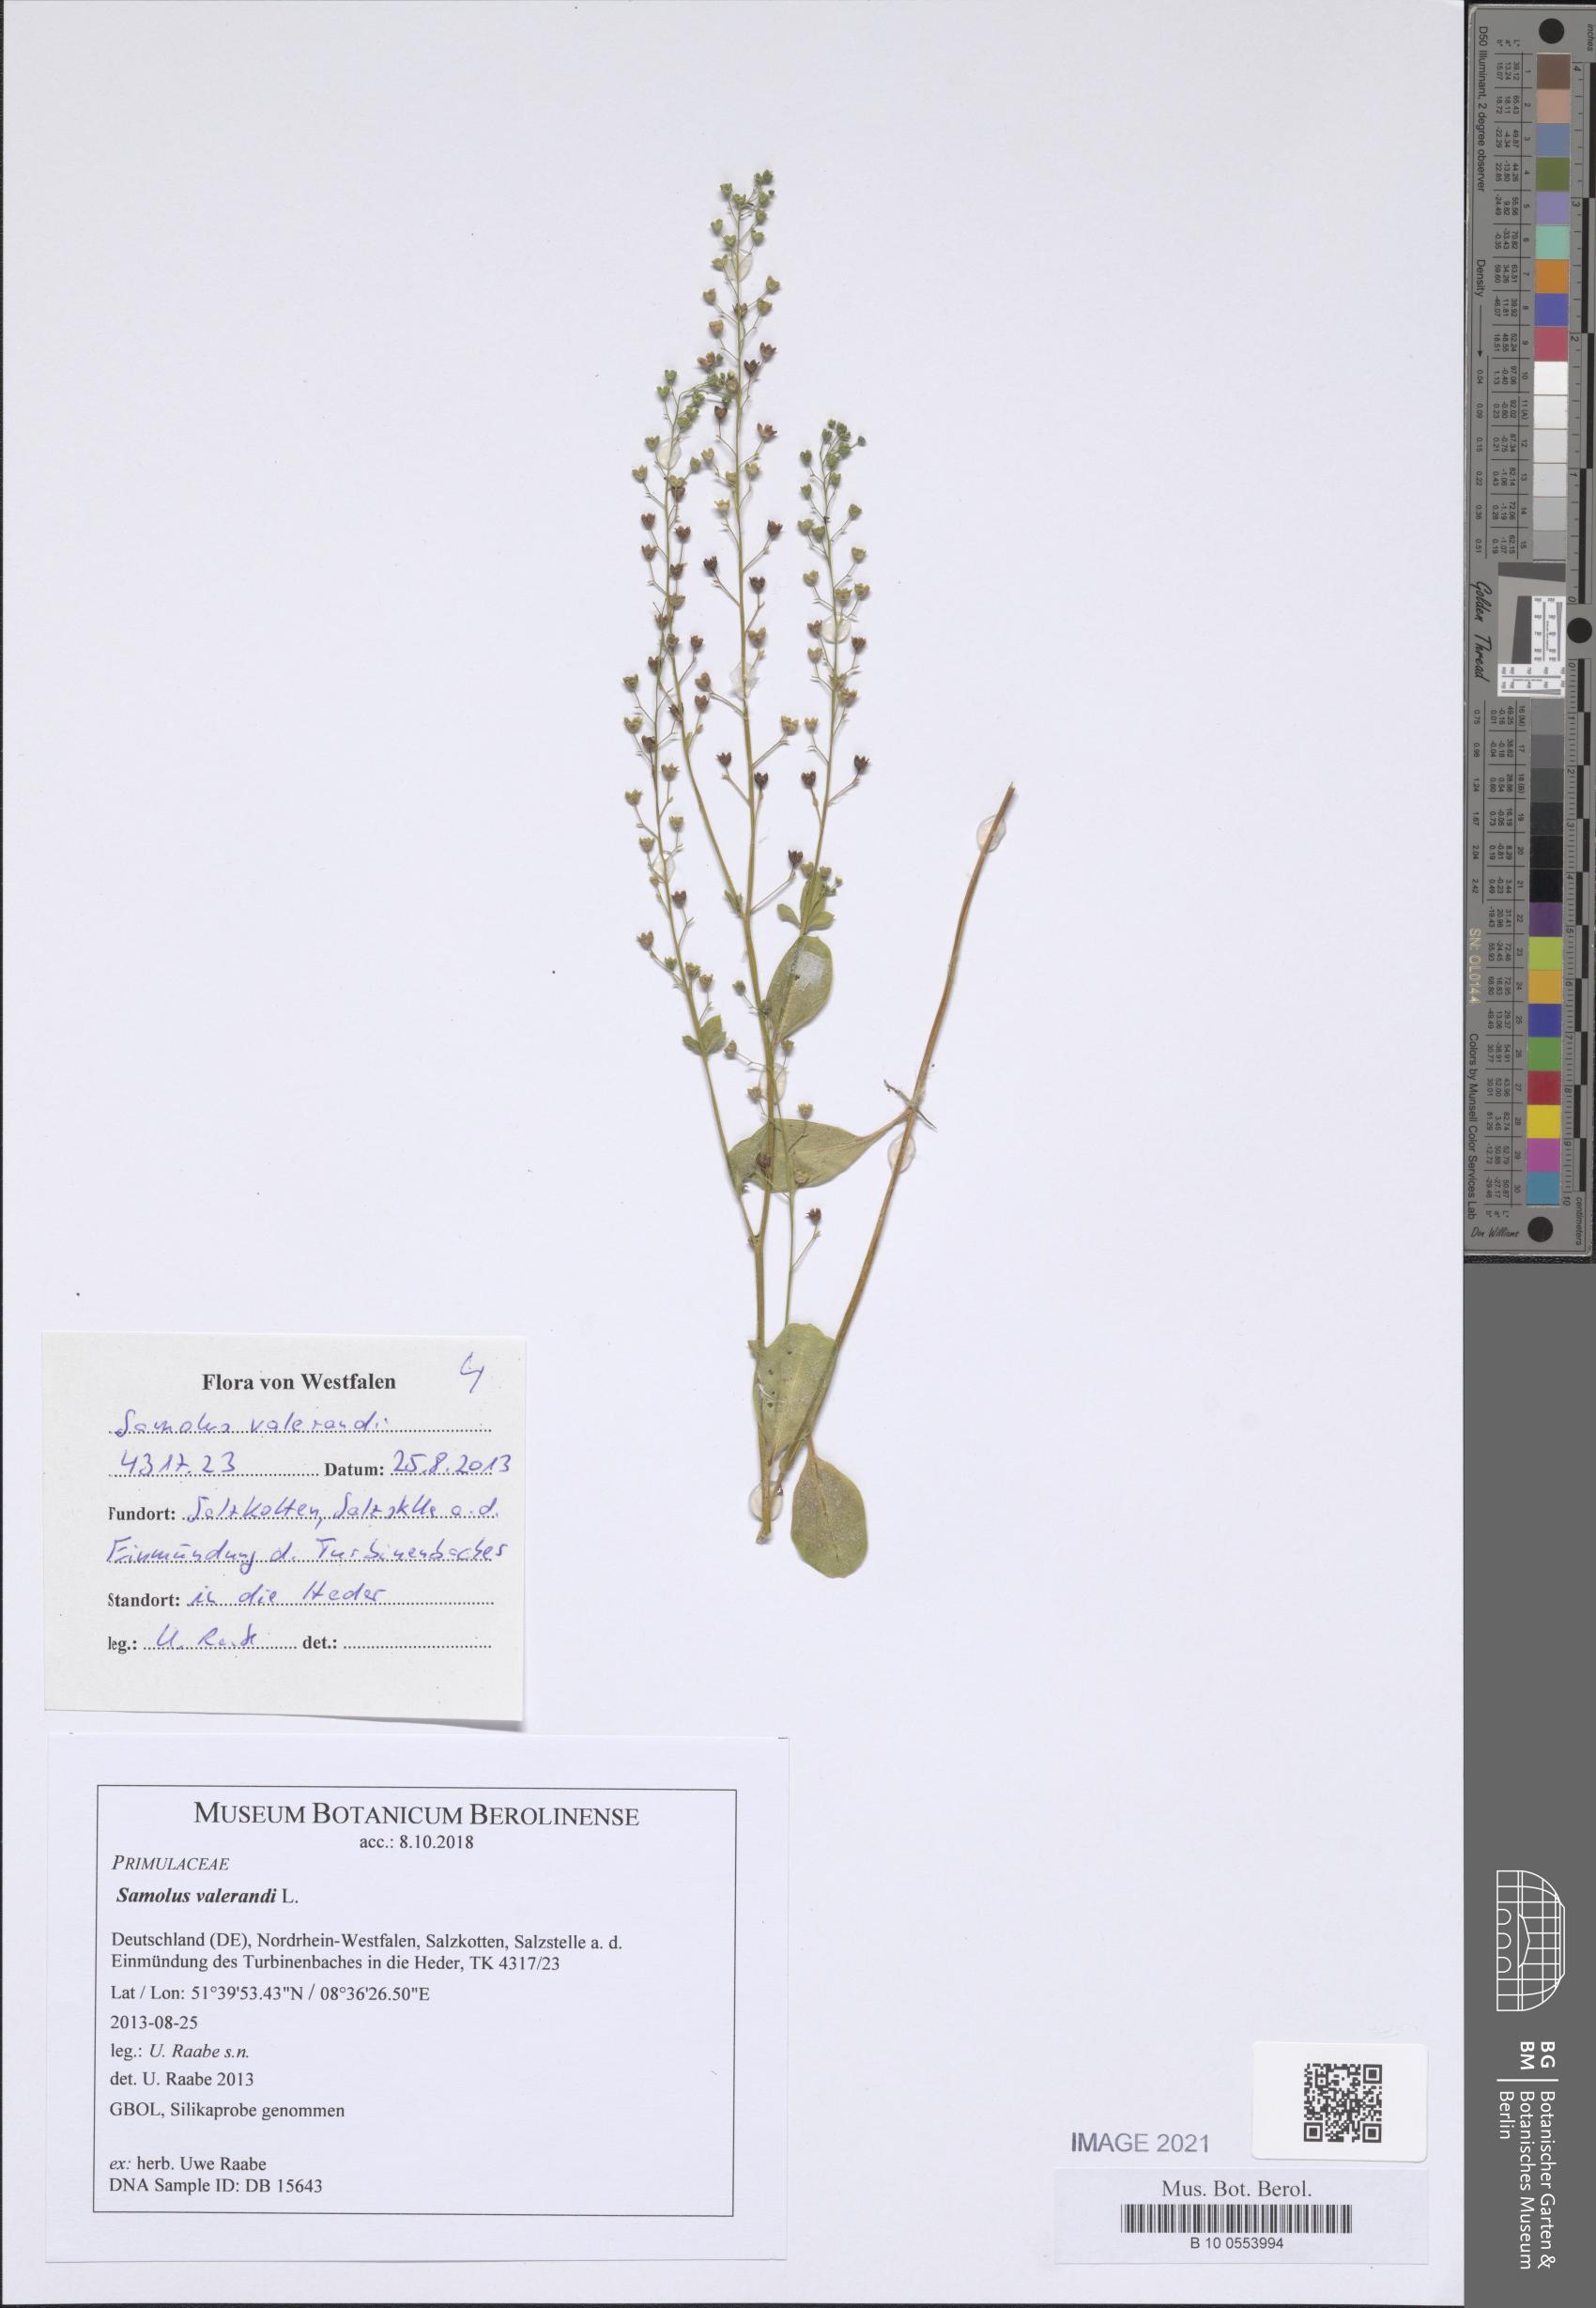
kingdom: Plantae
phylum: Tracheophyta
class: Magnoliopsida
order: Ericales
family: Primulaceae
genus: Samolus
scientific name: Samolus valerandi
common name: Brookweed
